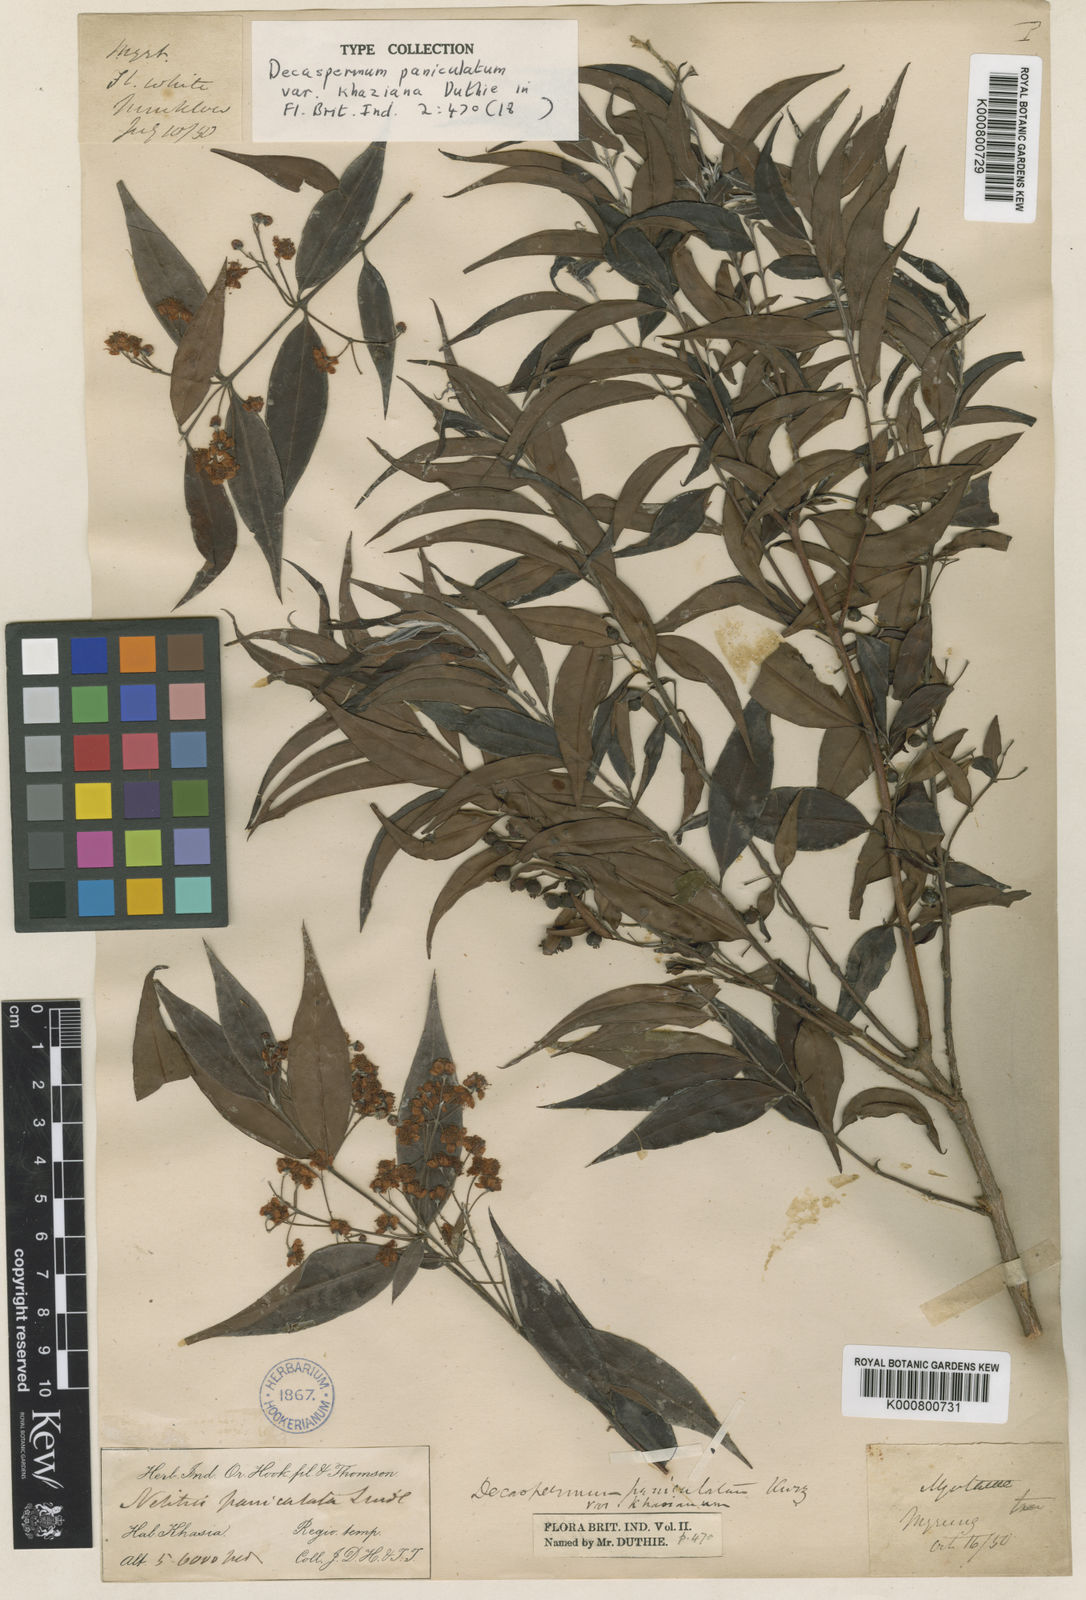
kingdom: Plantae
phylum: Tracheophyta
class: Magnoliopsida
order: Myrtales
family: Myrtaceae
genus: Decaspermum
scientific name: Decaspermum parviflorum
